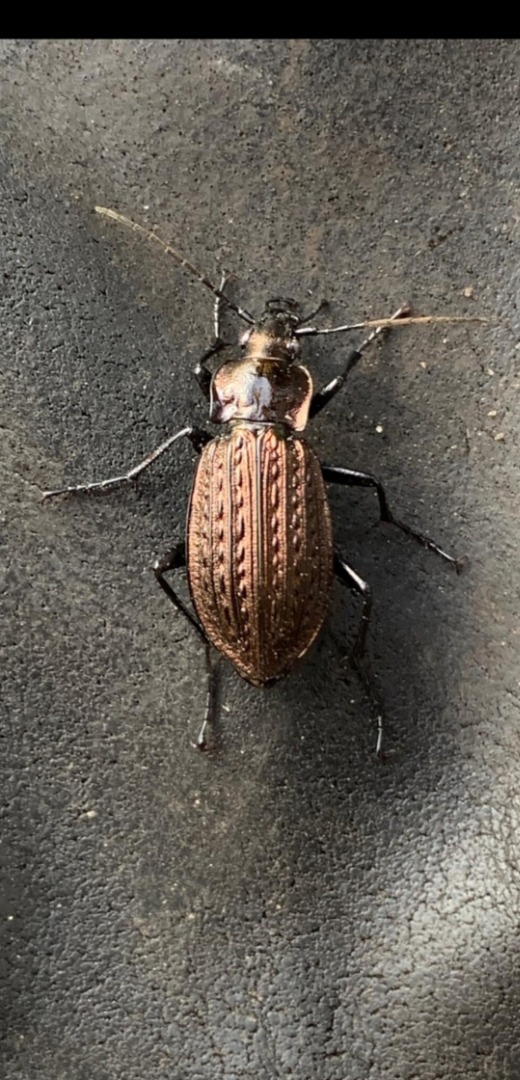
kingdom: Animalia
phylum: Arthropoda
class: Insecta
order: Coleoptera
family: Carabidae
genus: Carabus
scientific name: Carabus granulatus
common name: Kornet løber
